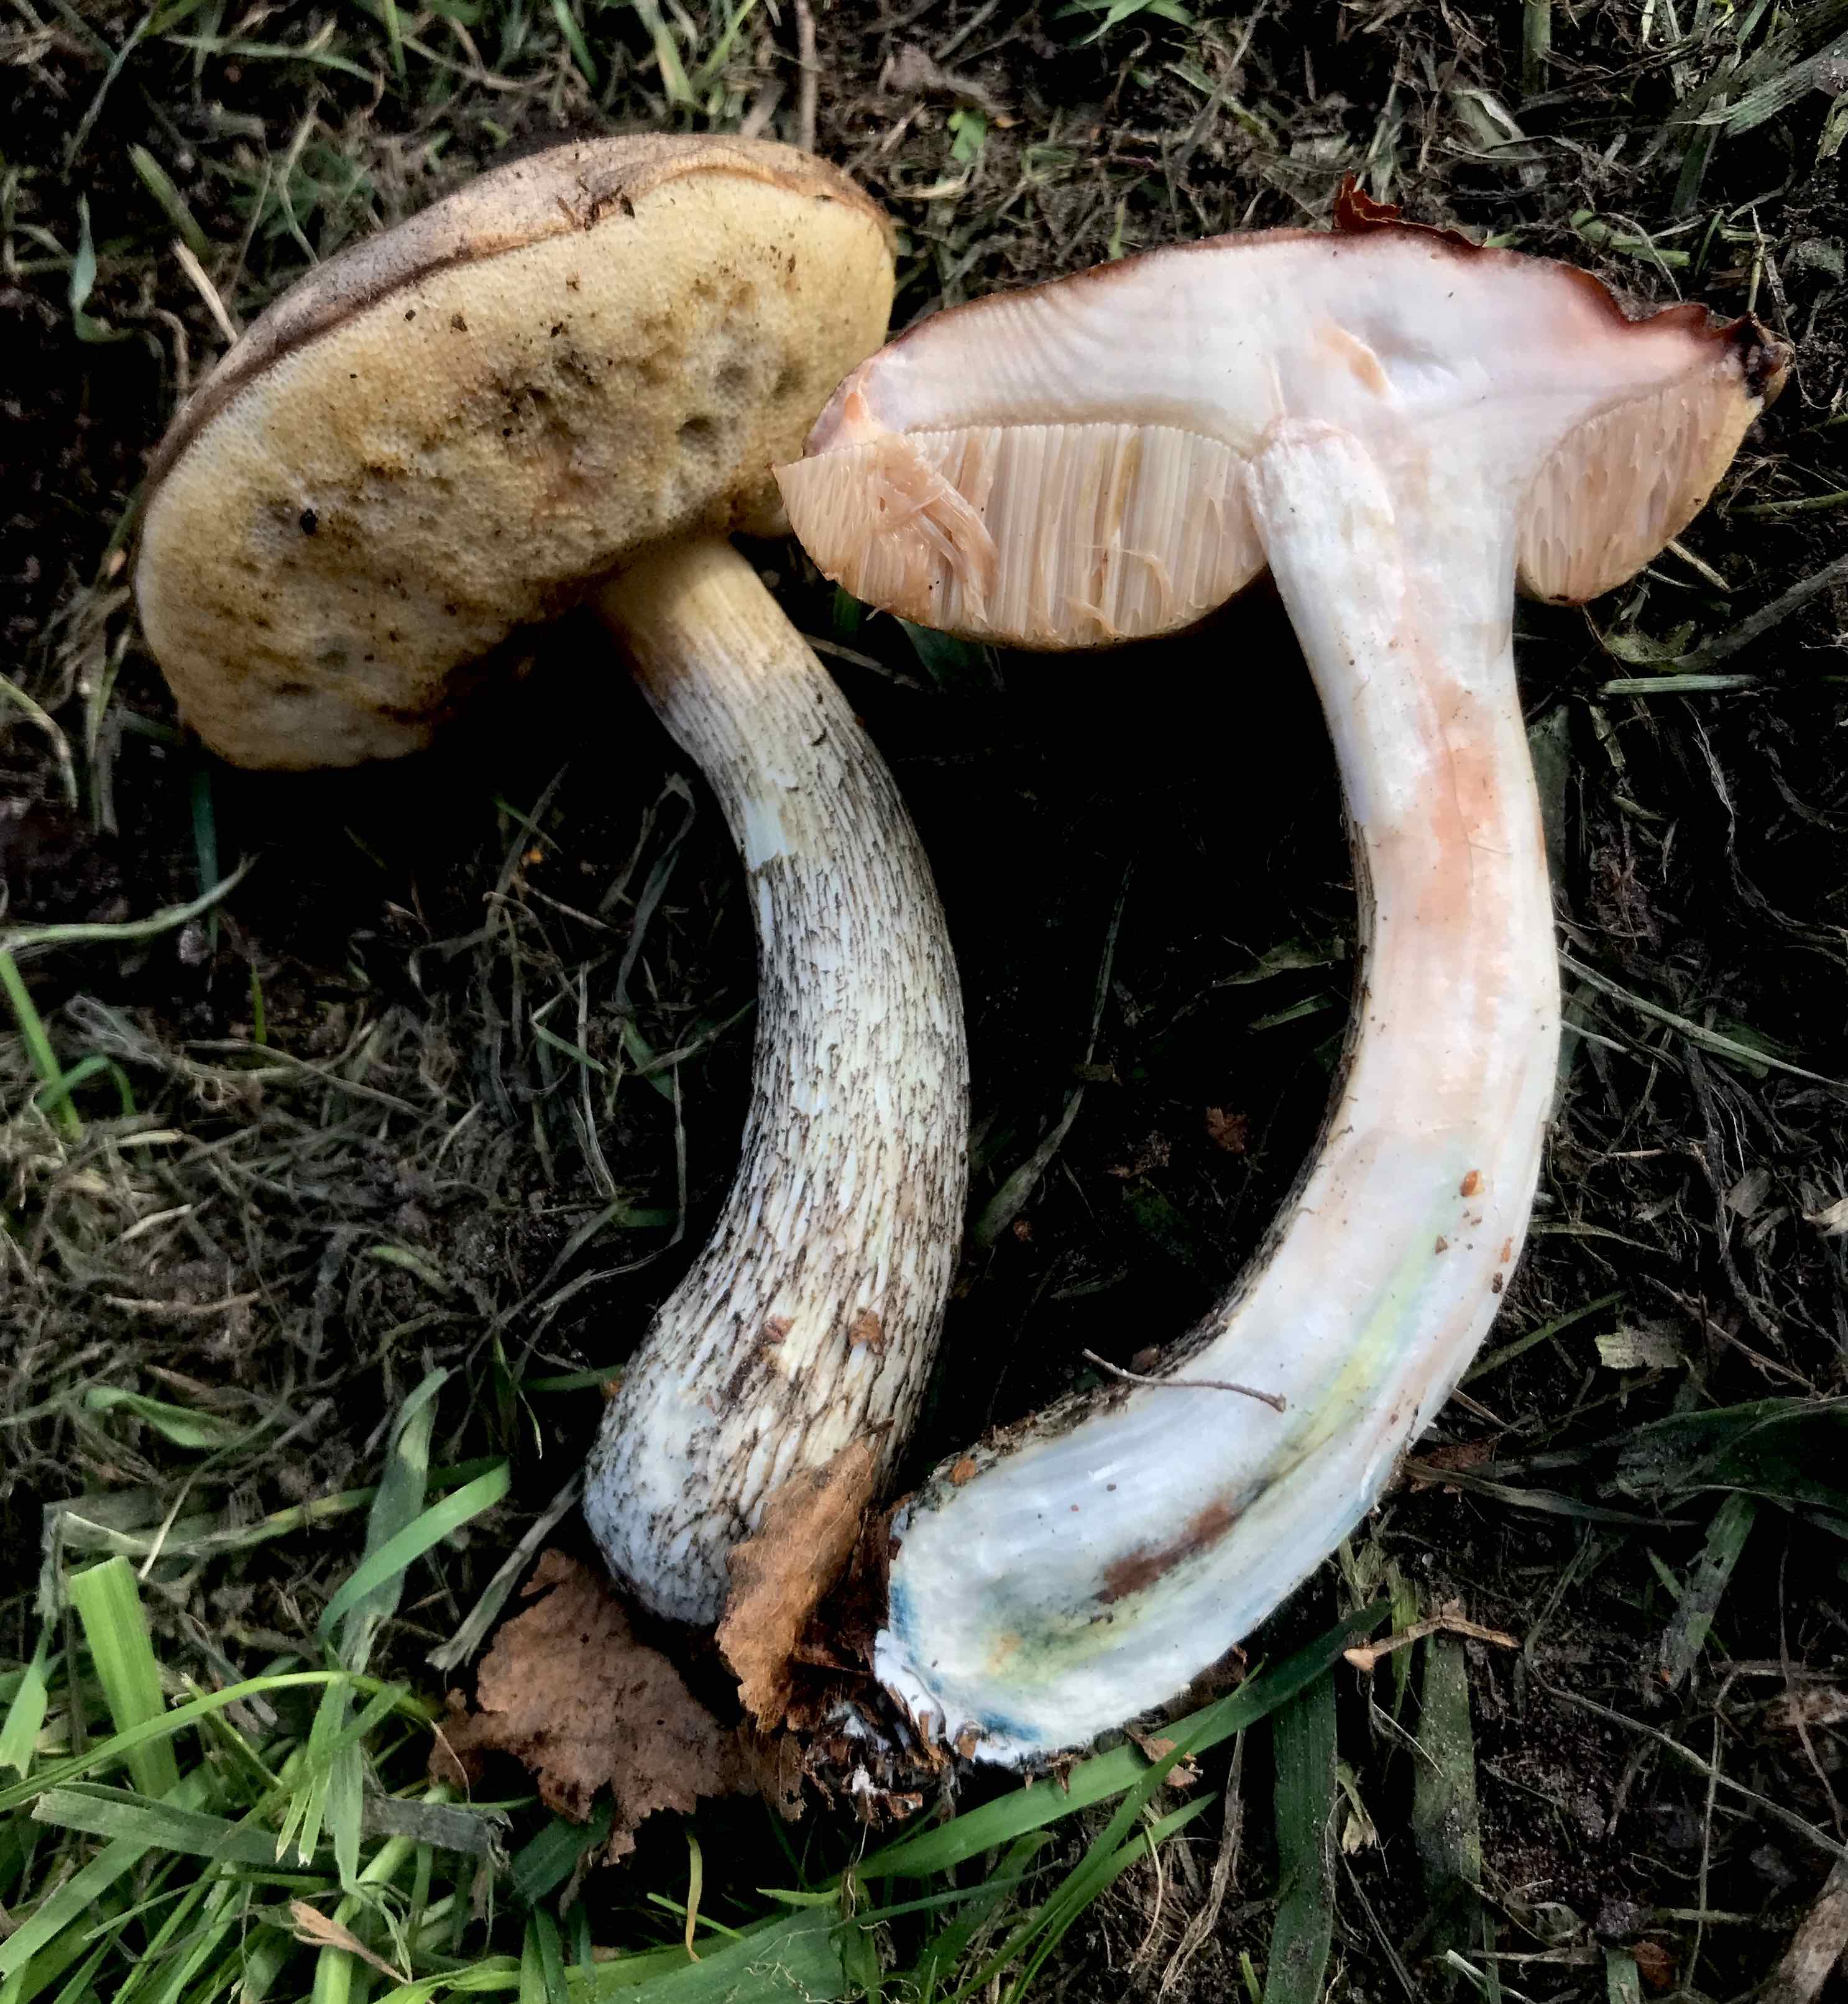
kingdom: Fungi
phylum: Basidiomycota
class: Agaricomycetes
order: Boletales
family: Boletaceae
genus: Leccinum
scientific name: Leccinum variicolor
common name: flammet skælrørhat
